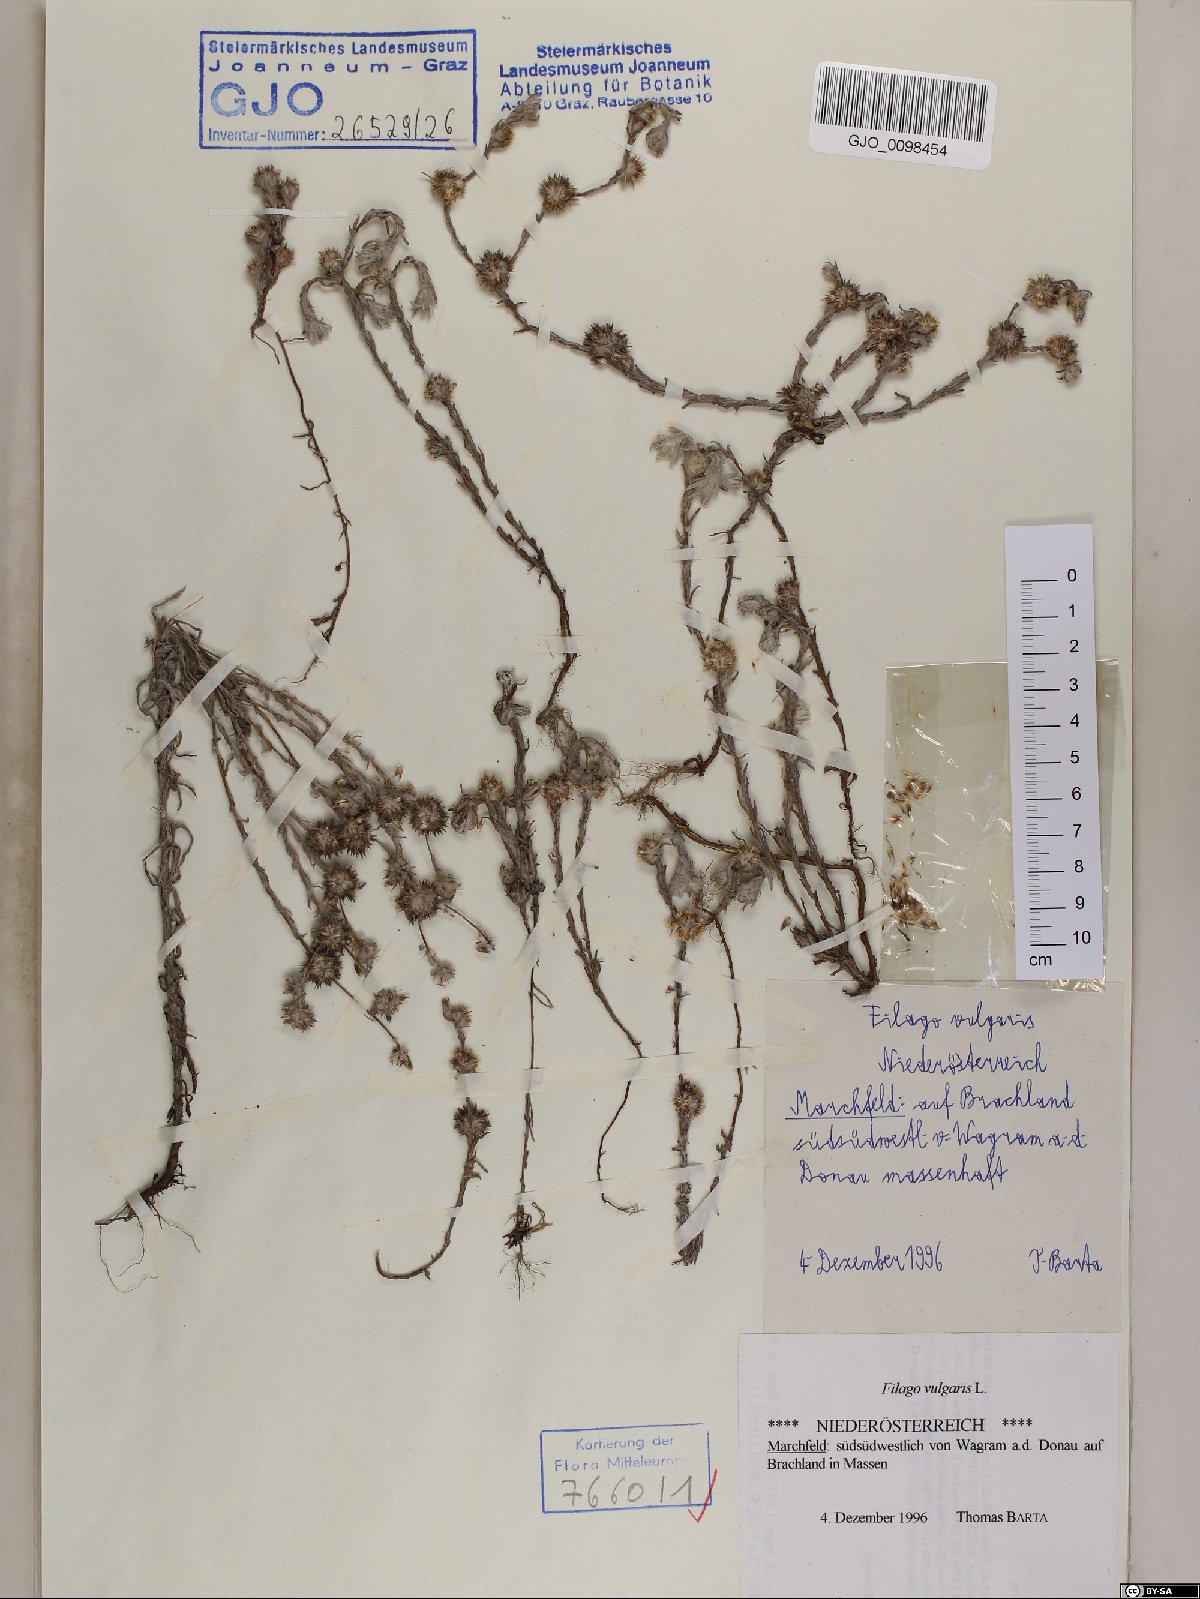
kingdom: Plantae
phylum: Tracheophyta
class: Magnoliopsida
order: Asterales
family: Asteraceae
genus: Filago
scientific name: Filago germanica
